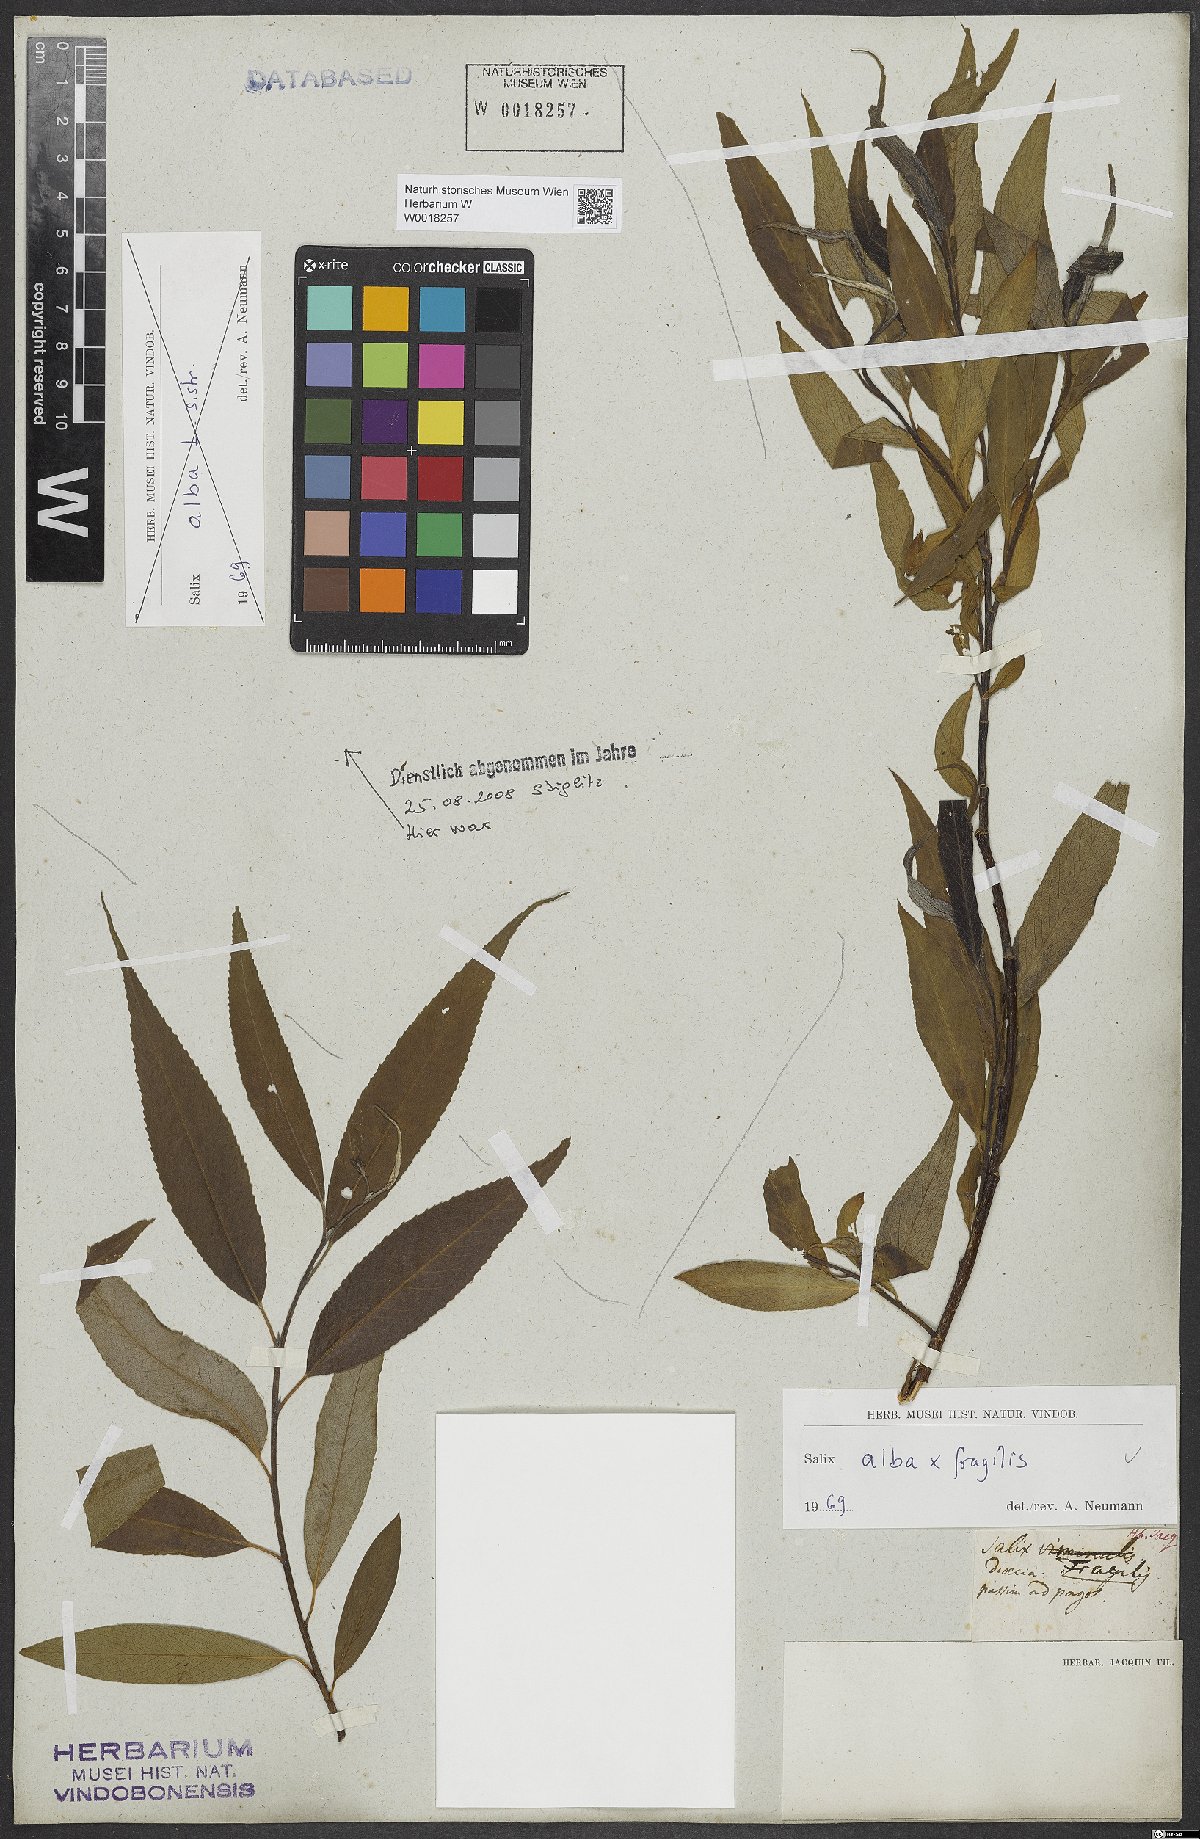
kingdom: Plantae
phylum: Tracheophyta
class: Magnoliopsida
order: Malpighiales
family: Salicaceae
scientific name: Salicaceae
